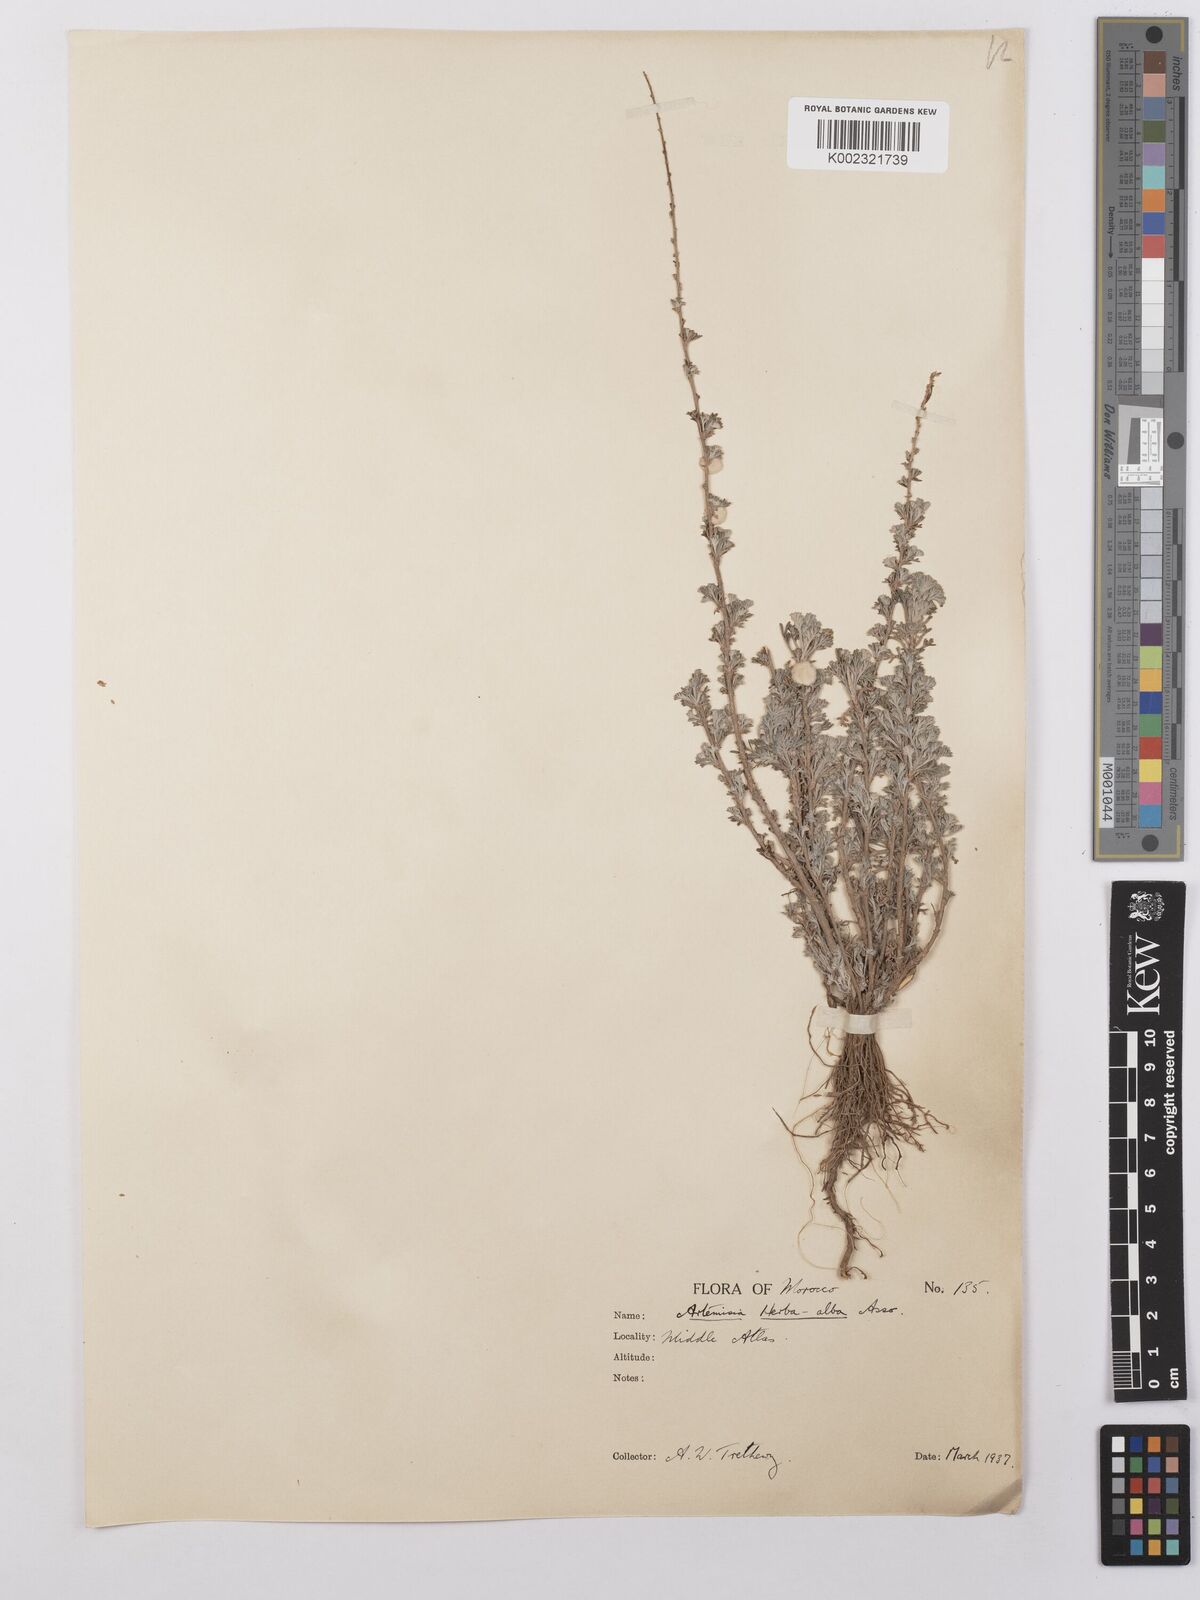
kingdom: Plantae
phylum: Tracheophyta
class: Magnoliopsida
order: Asterales
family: Asteraceae
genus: Artemisia
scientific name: Artemisia herba-alba
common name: White wormwood
